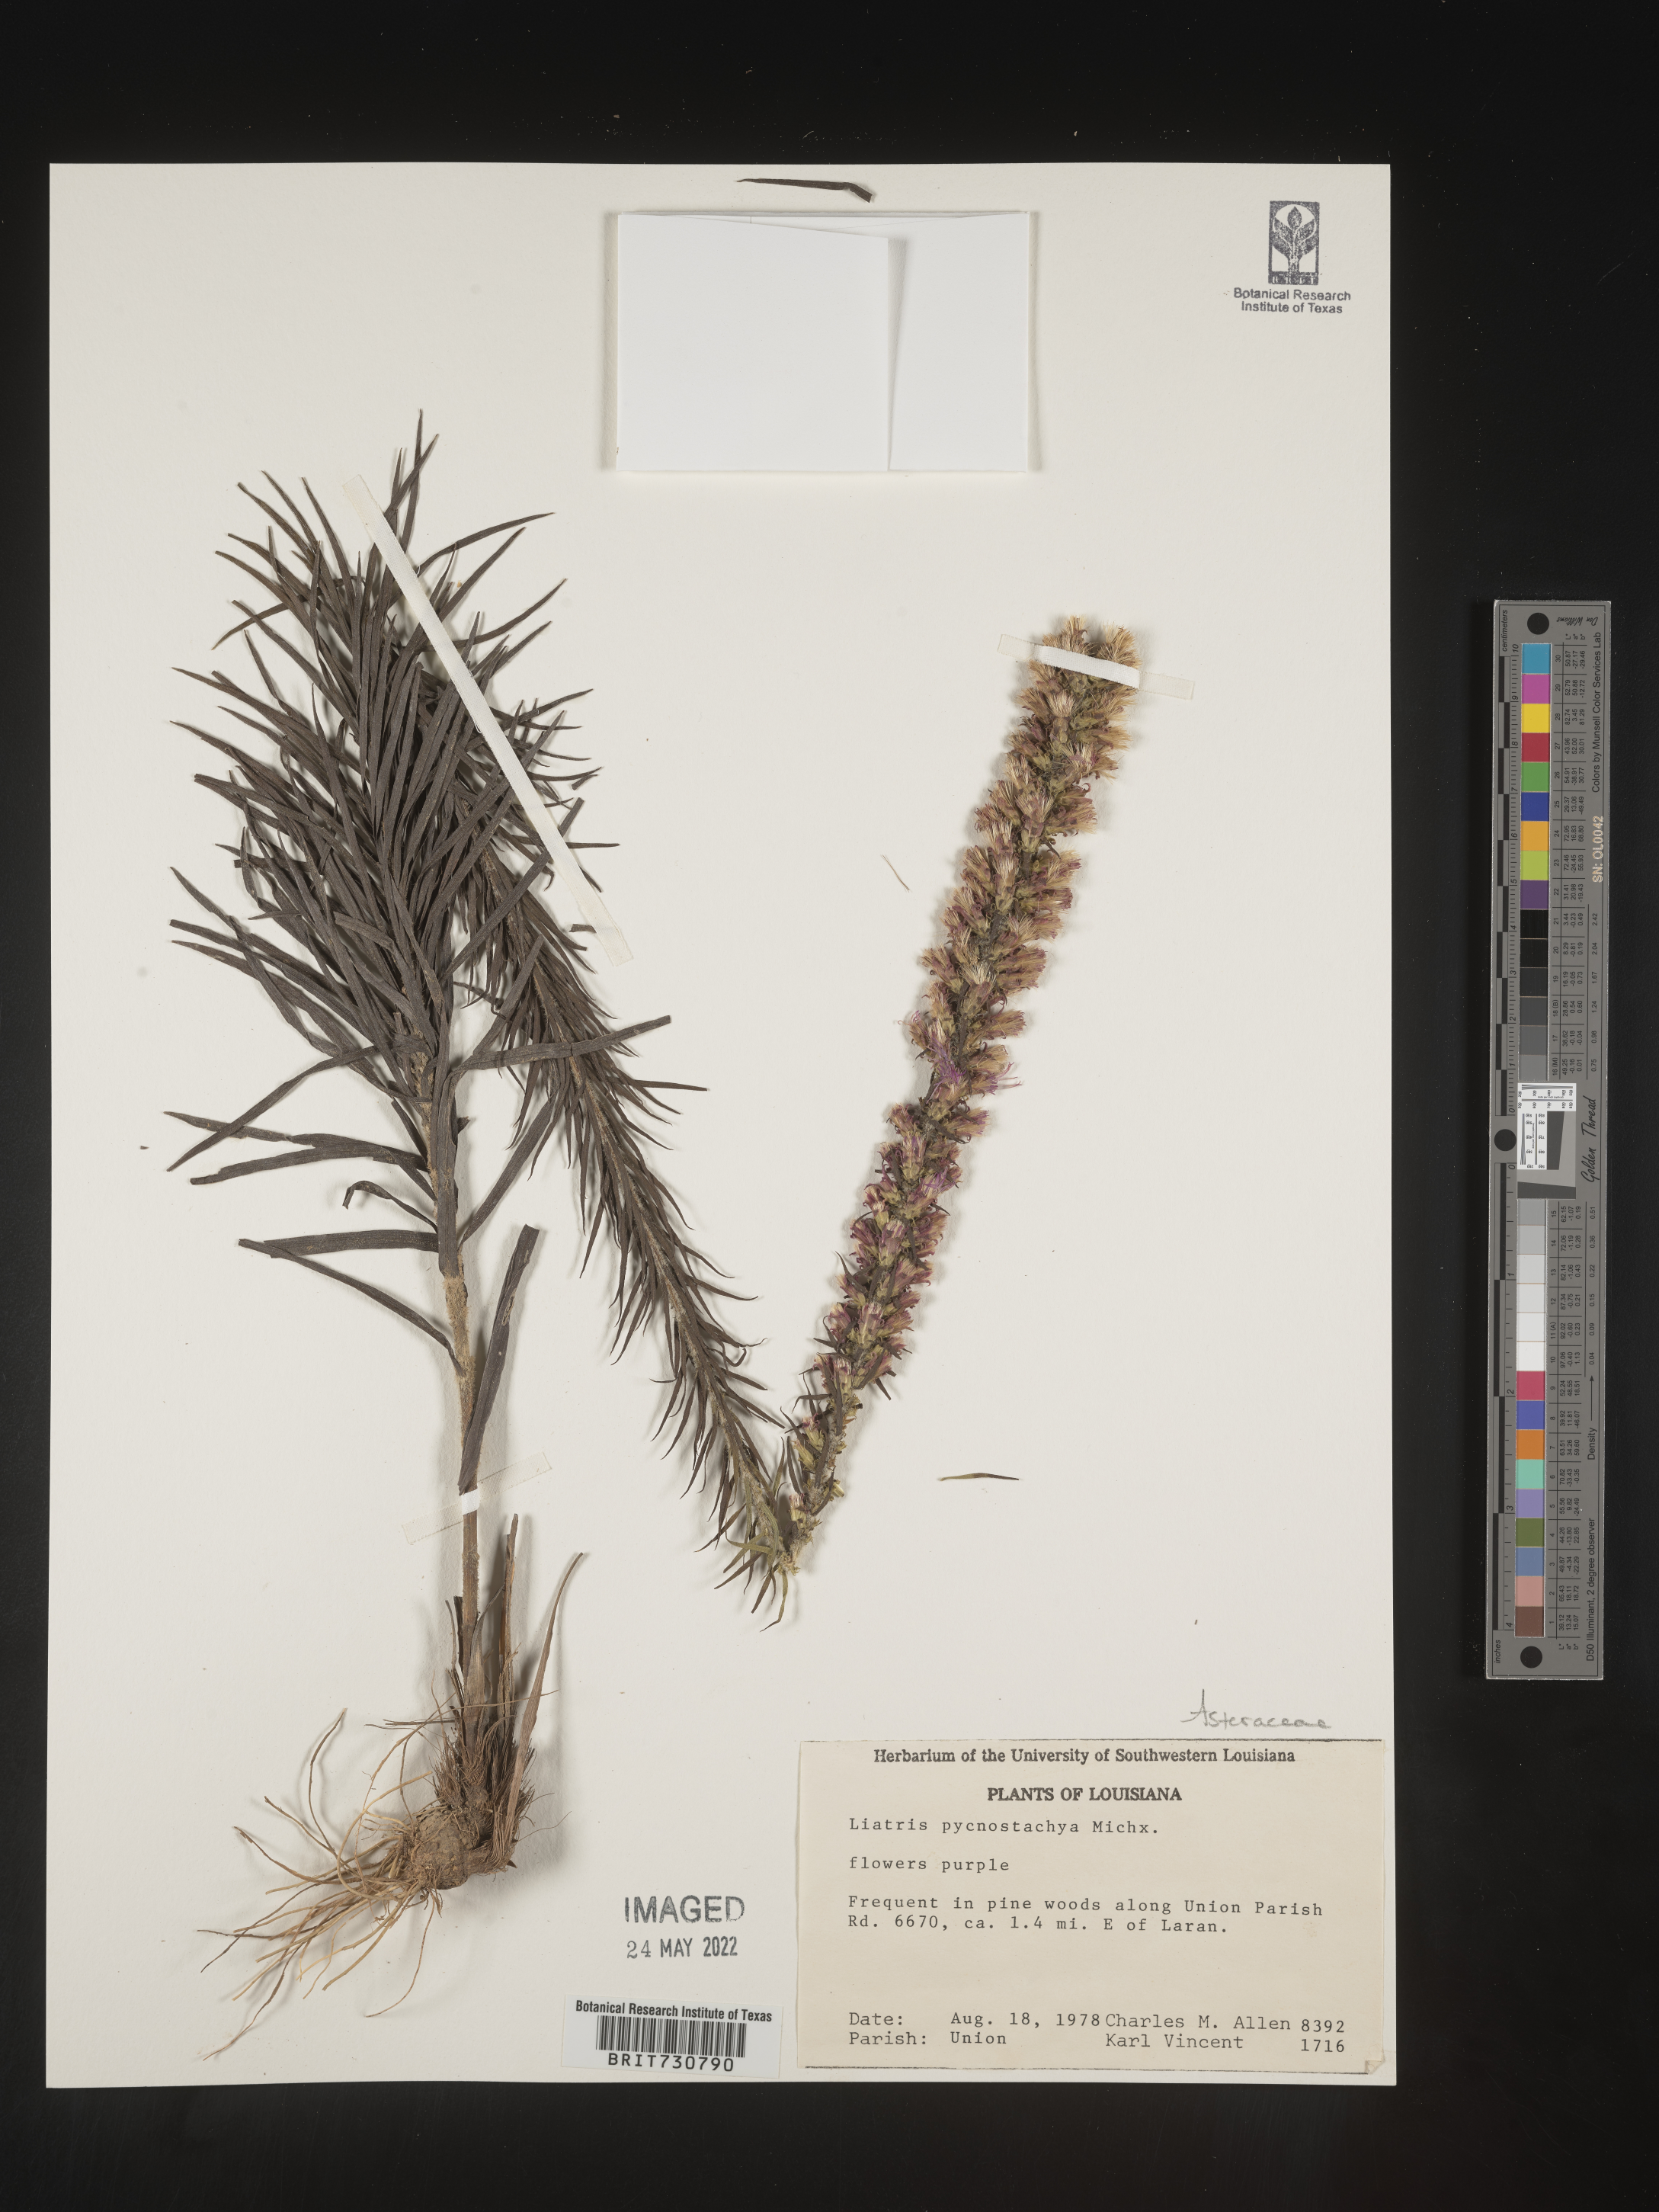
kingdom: Plantae
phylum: Tracheophyta
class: Magnoliopsida
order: Asterales
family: Asteraceae
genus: Liatris
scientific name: Liatris pycnostachya
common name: Cattail gayfeather
